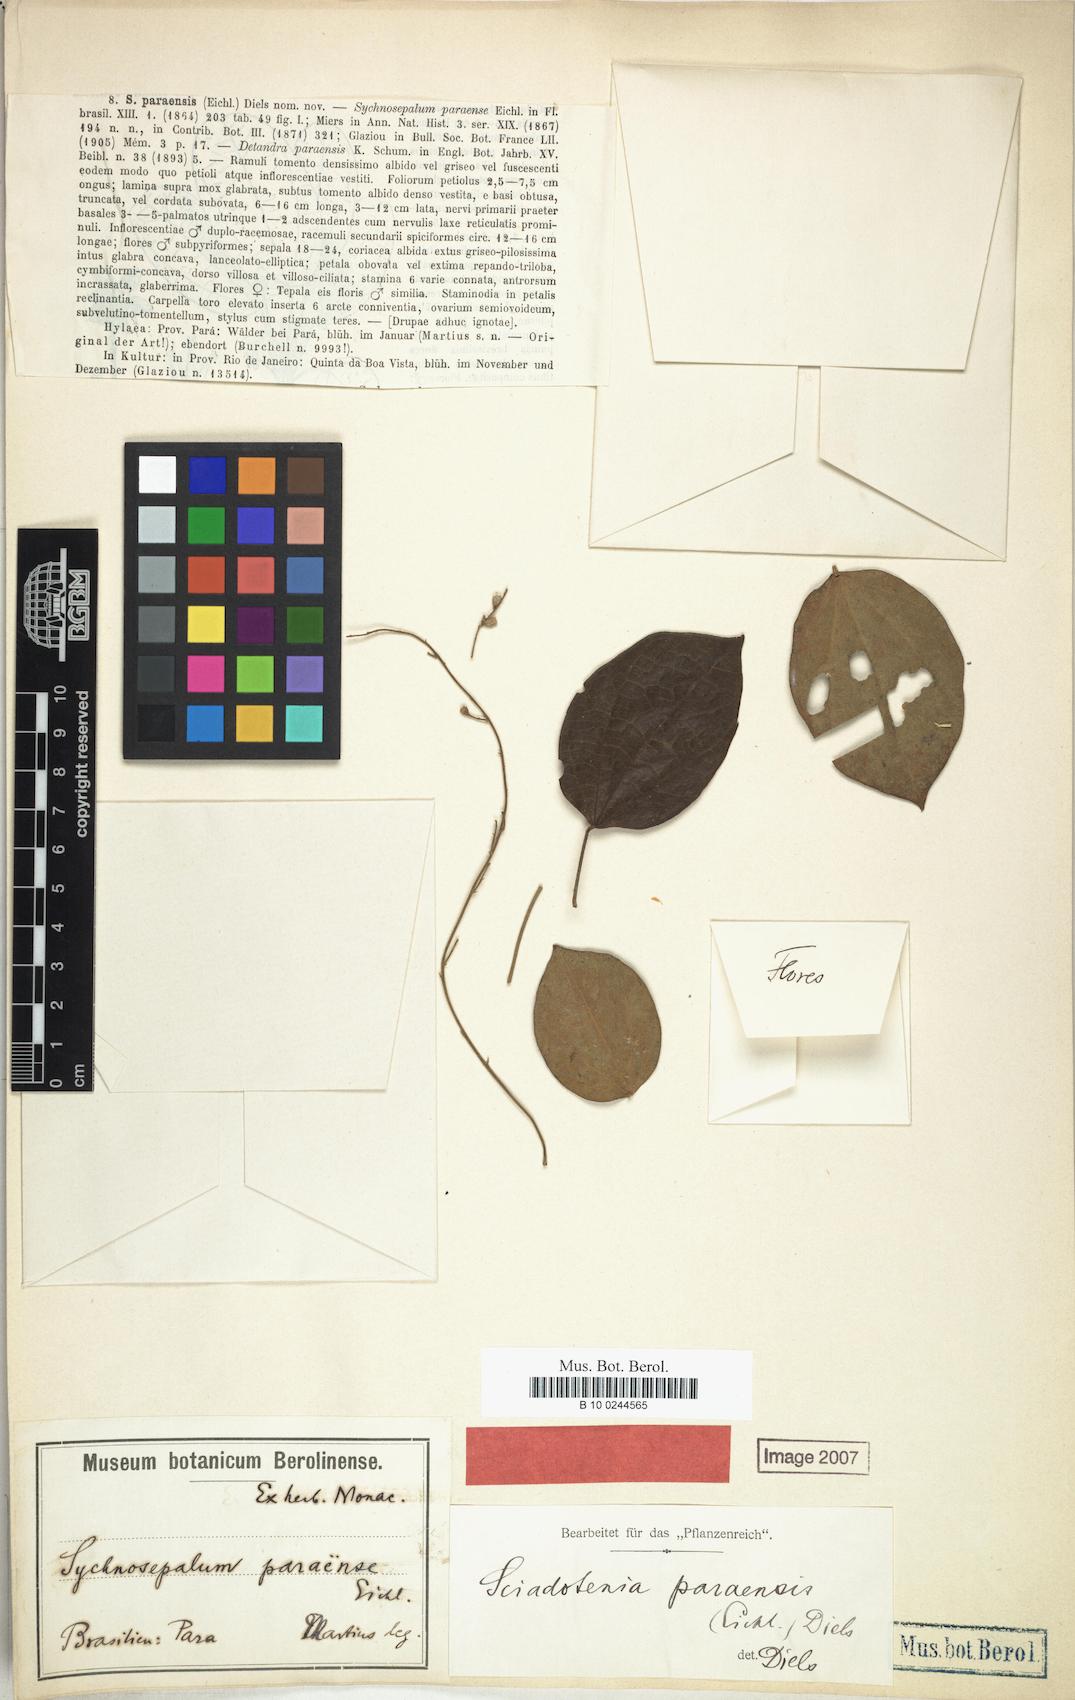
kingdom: Plantae
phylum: Tracheophyta
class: Magnoliopsida
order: Ranunculales
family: Menispermaceae
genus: Sciadotenia
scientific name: Sciadotenia paraensis
